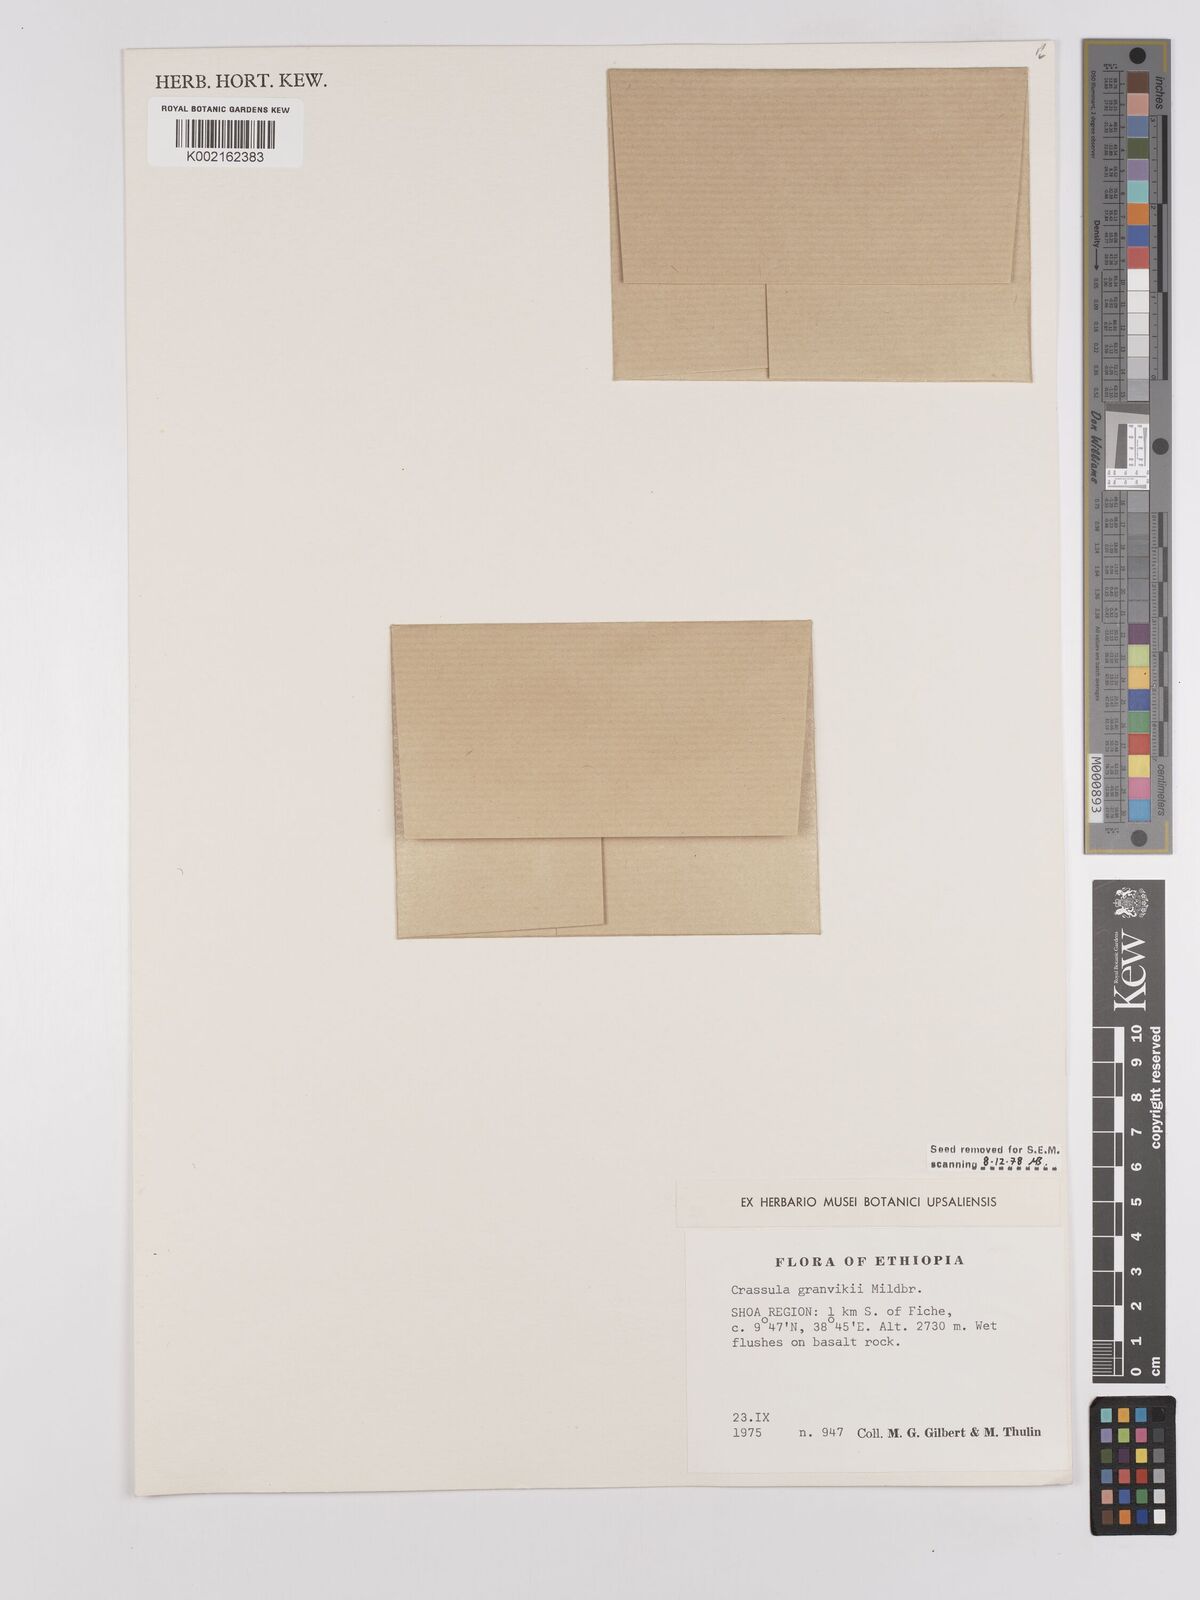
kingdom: Plantae
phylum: Tracheophyta
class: Magnoliopsida
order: Saxifragales
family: Crassulaceae
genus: Crassula
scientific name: Crassula granvikii
